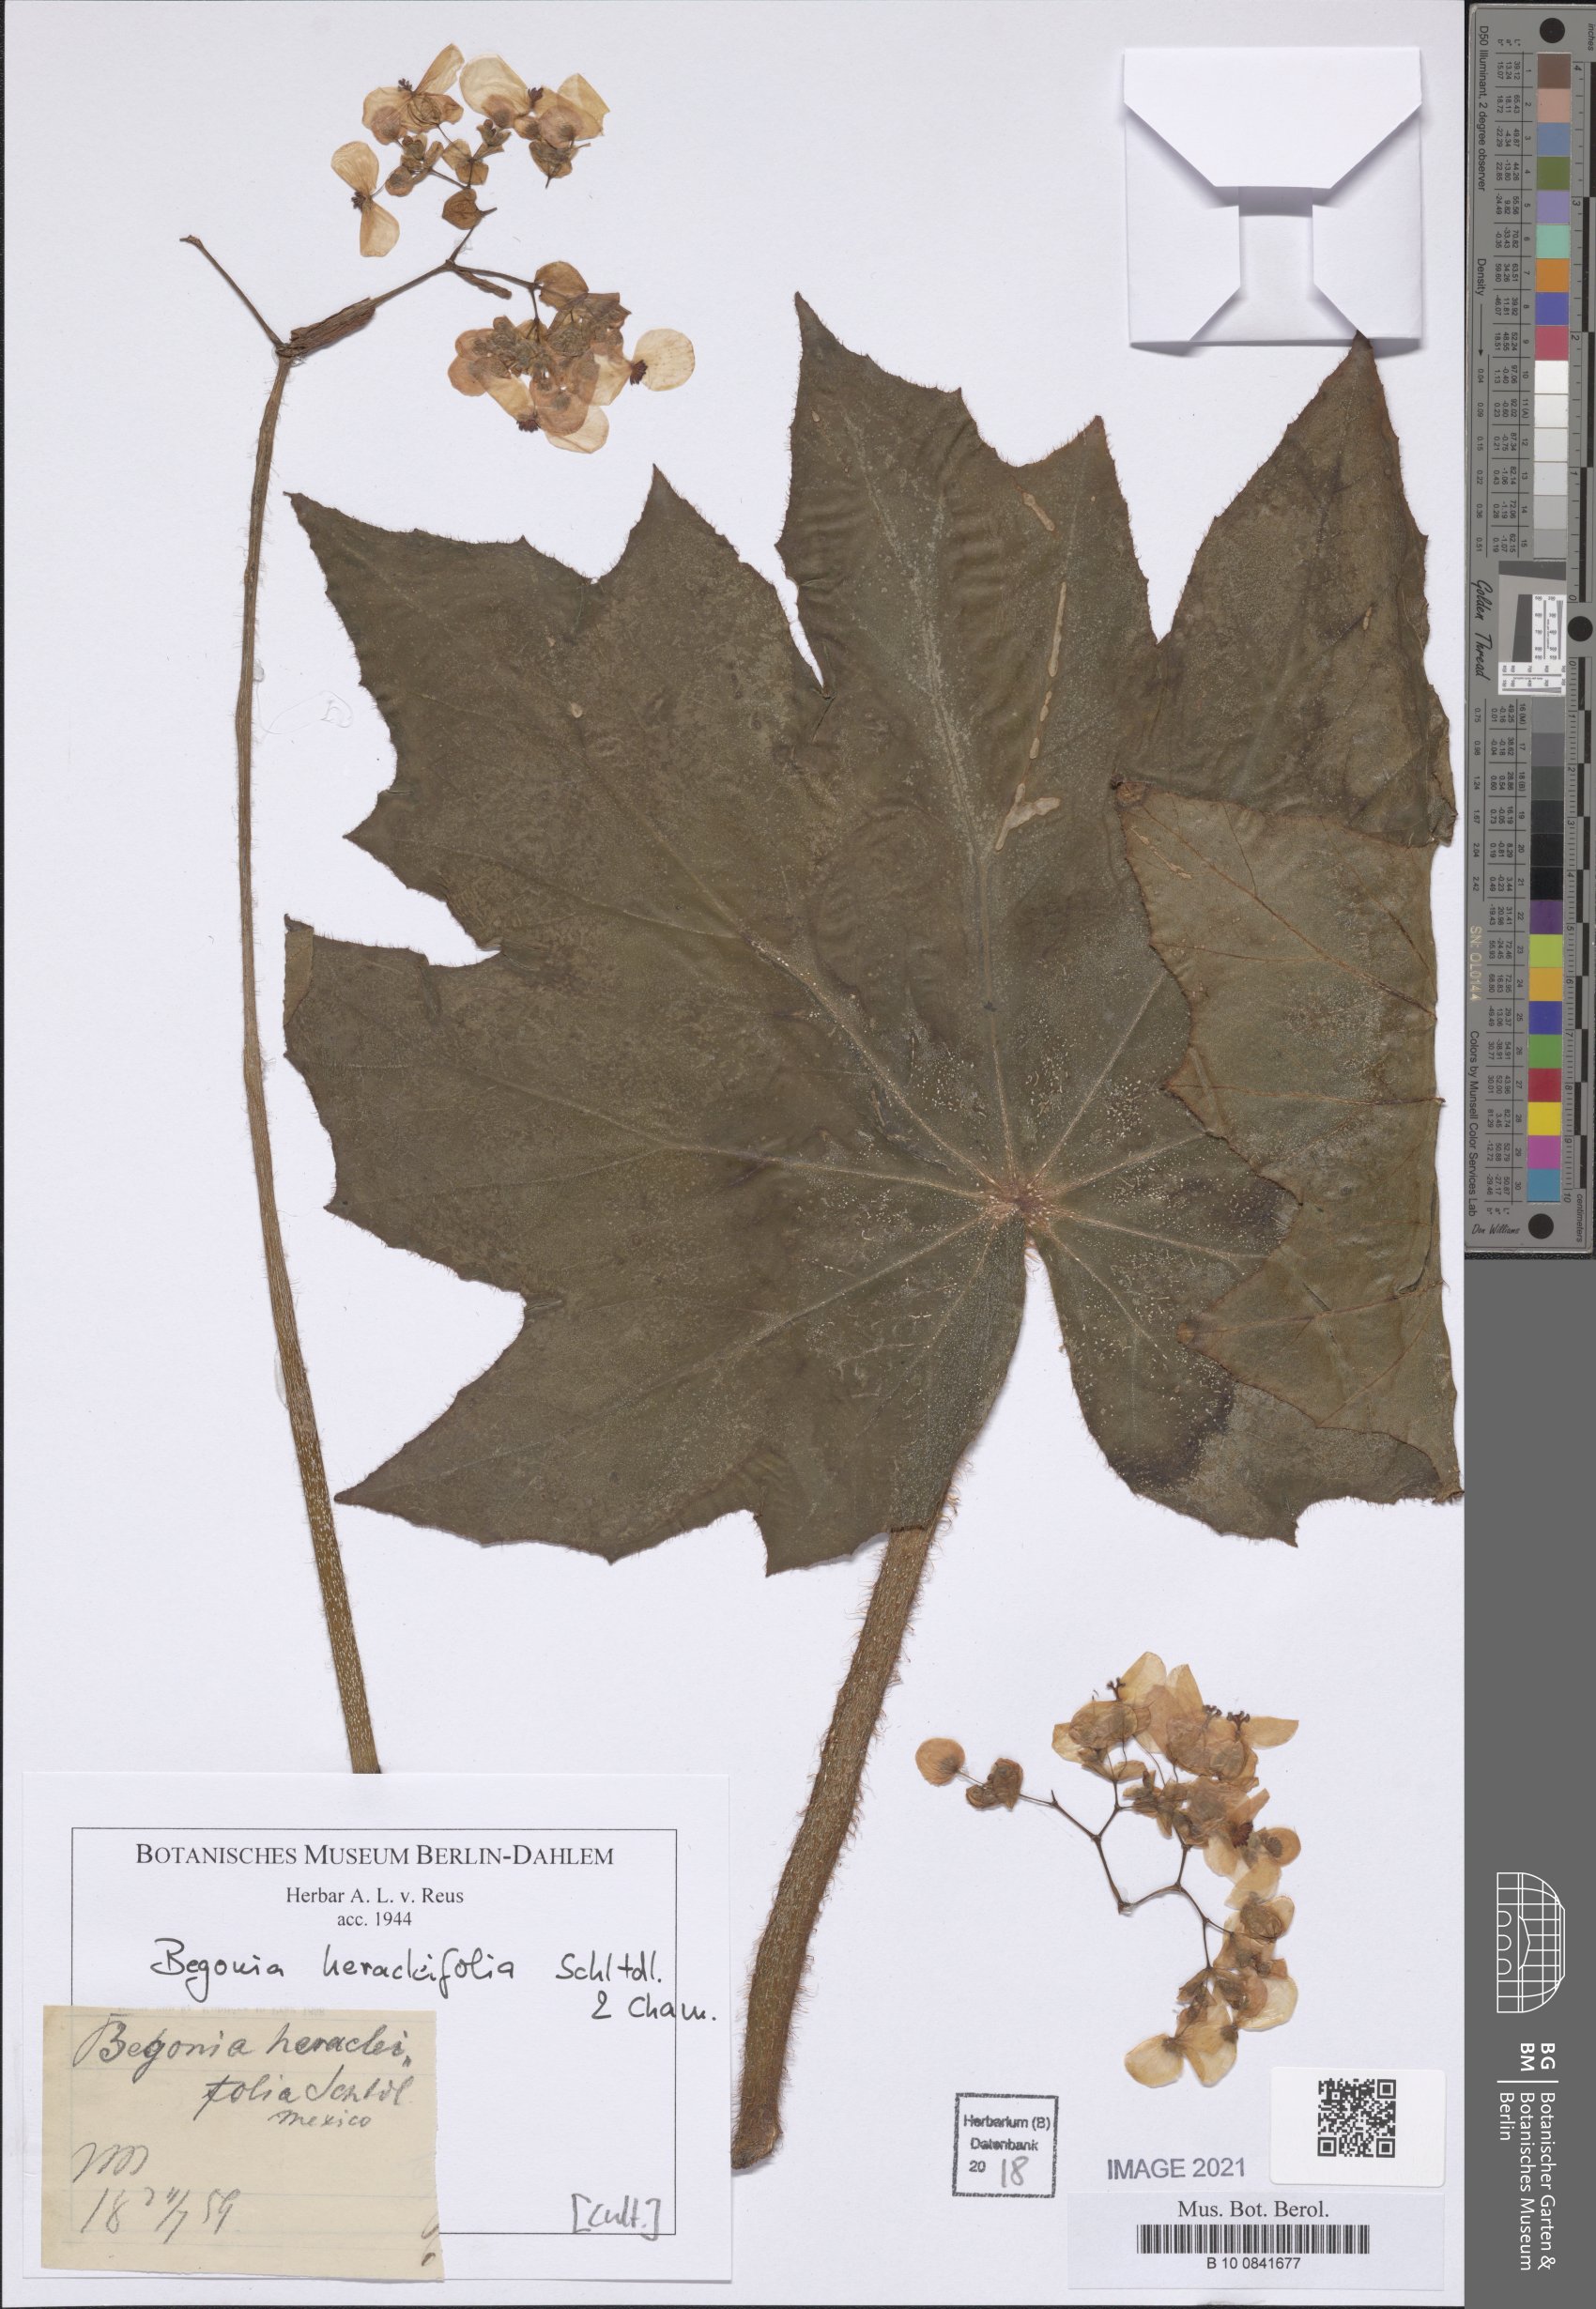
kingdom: Plantae
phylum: Tracheophyta
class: Magnoliopsida
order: Cucurbitales
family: Begoniaceae
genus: Begonia
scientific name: Begonia heracleifolia
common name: Star begonia
